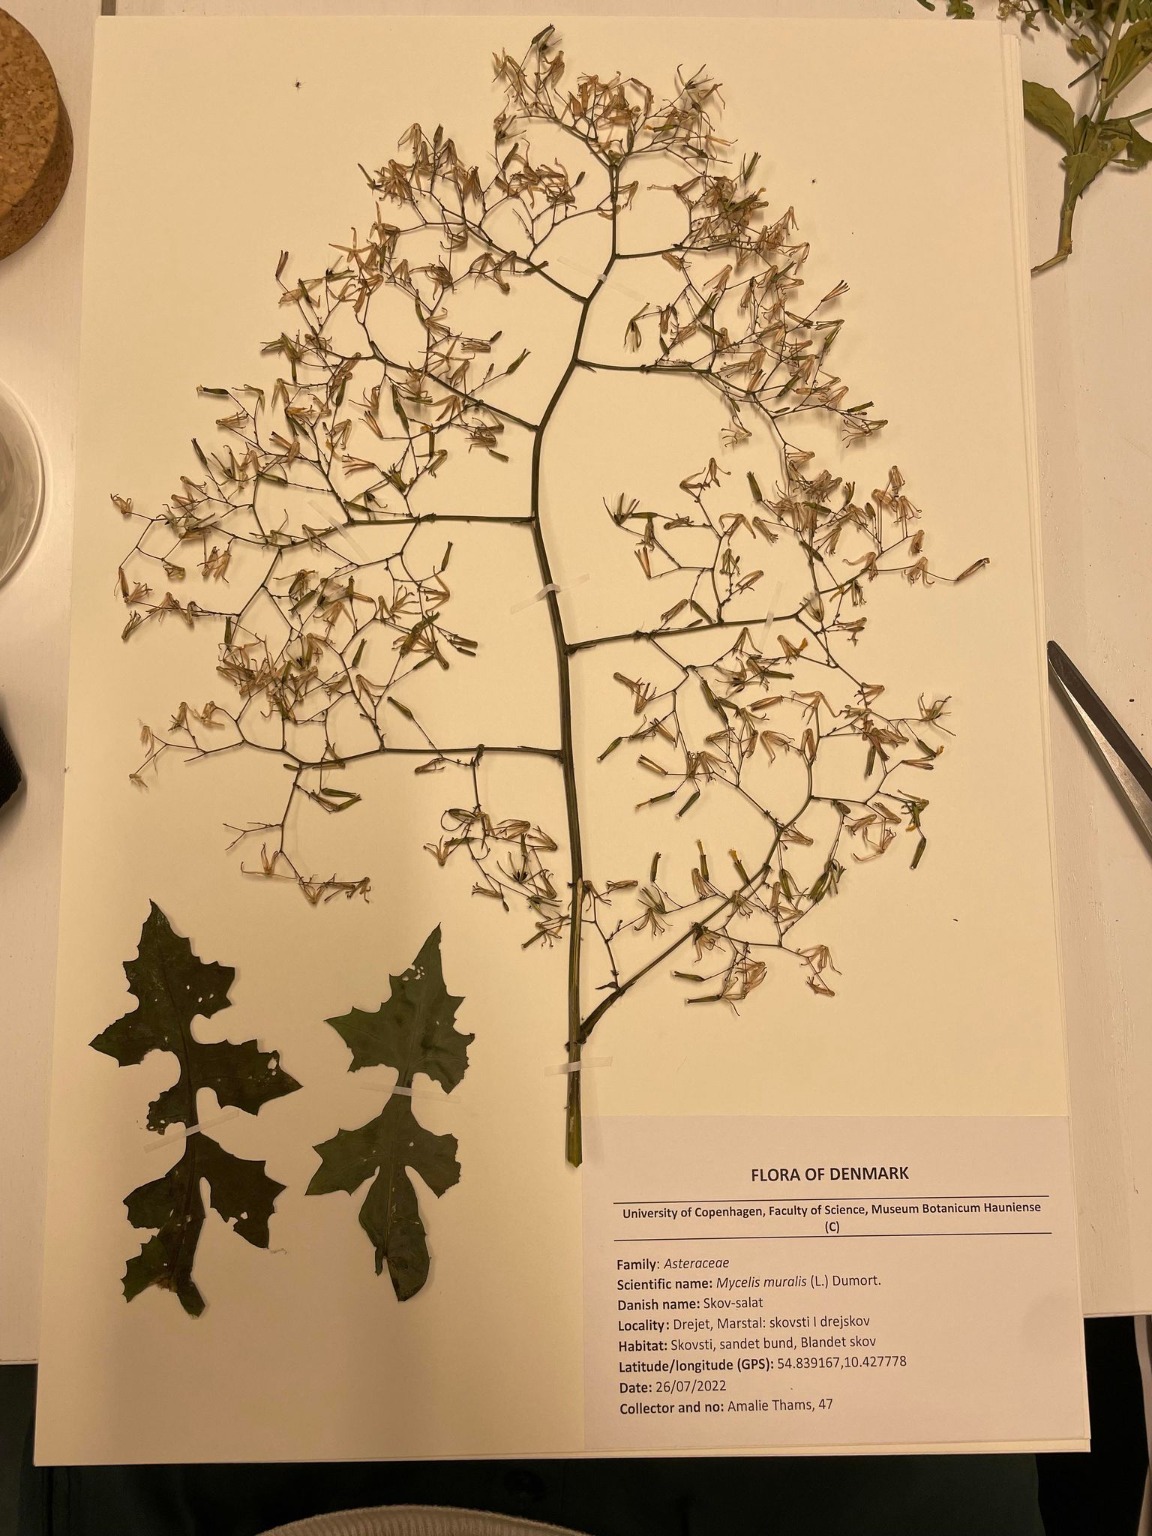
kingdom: Plantae
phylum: Tracheophyta
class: Magnoliopsida
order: Asterales
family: Asteraceae
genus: Mycelis
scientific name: Mycelis muralis
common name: Skov-salat
